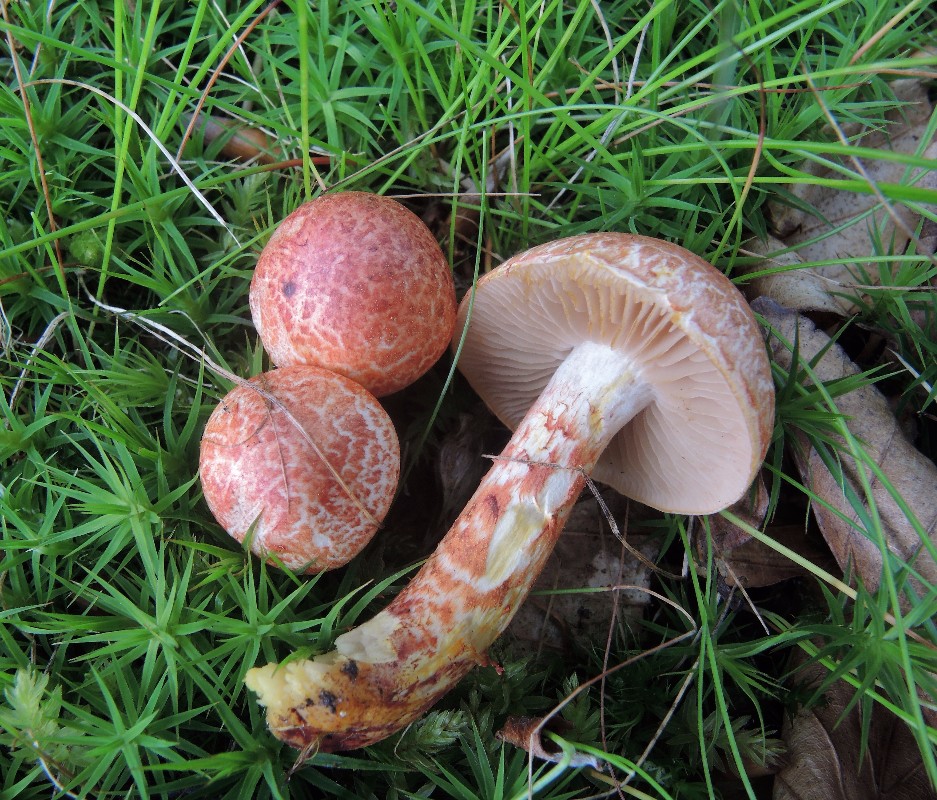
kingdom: Fungi
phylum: Basidiomycota
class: Agaricomycetes
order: Agaricales
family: Cortinariaceae
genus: Cortinarius
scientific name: Cortinarius bolaris
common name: cinnoberskællet slørhat
